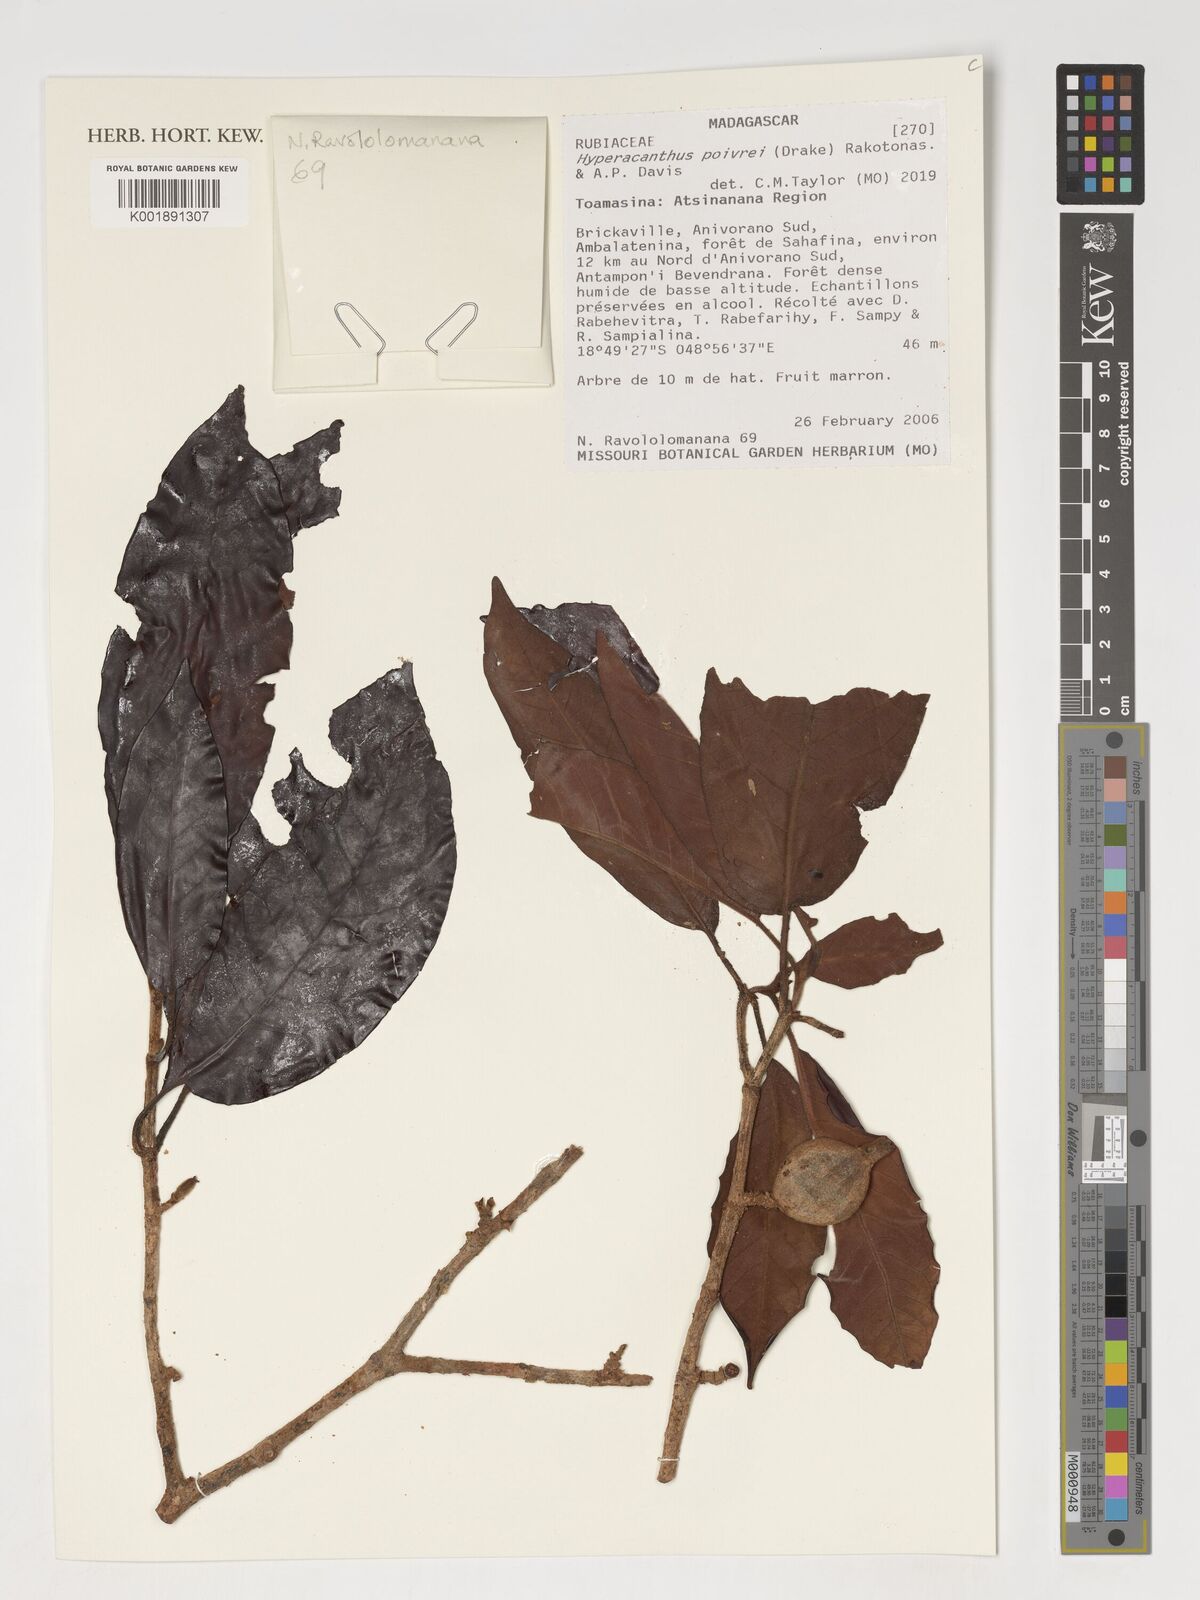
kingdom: Plantae
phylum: Tracheophyta
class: Magnoliopsida
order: Gentianales
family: Rubiaceae
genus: Hyperacanthus
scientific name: Hyperacanthus poivrei
